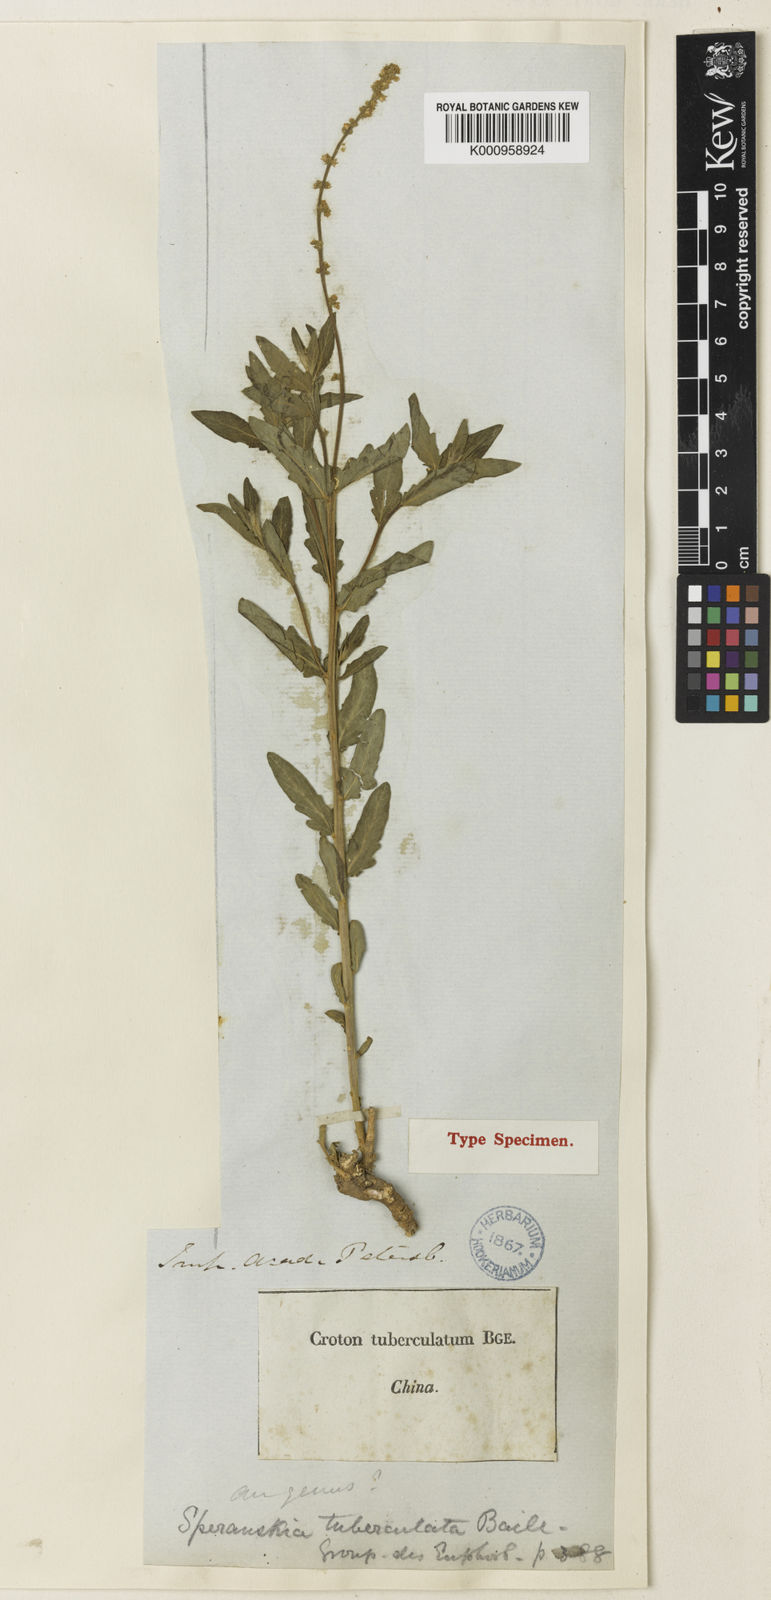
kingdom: Plantae
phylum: Tracheophyta
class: Magnoliopsida
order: Malpighiales
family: Euphorbiaceae
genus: Speranskia
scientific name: Speranskia tuberculata
